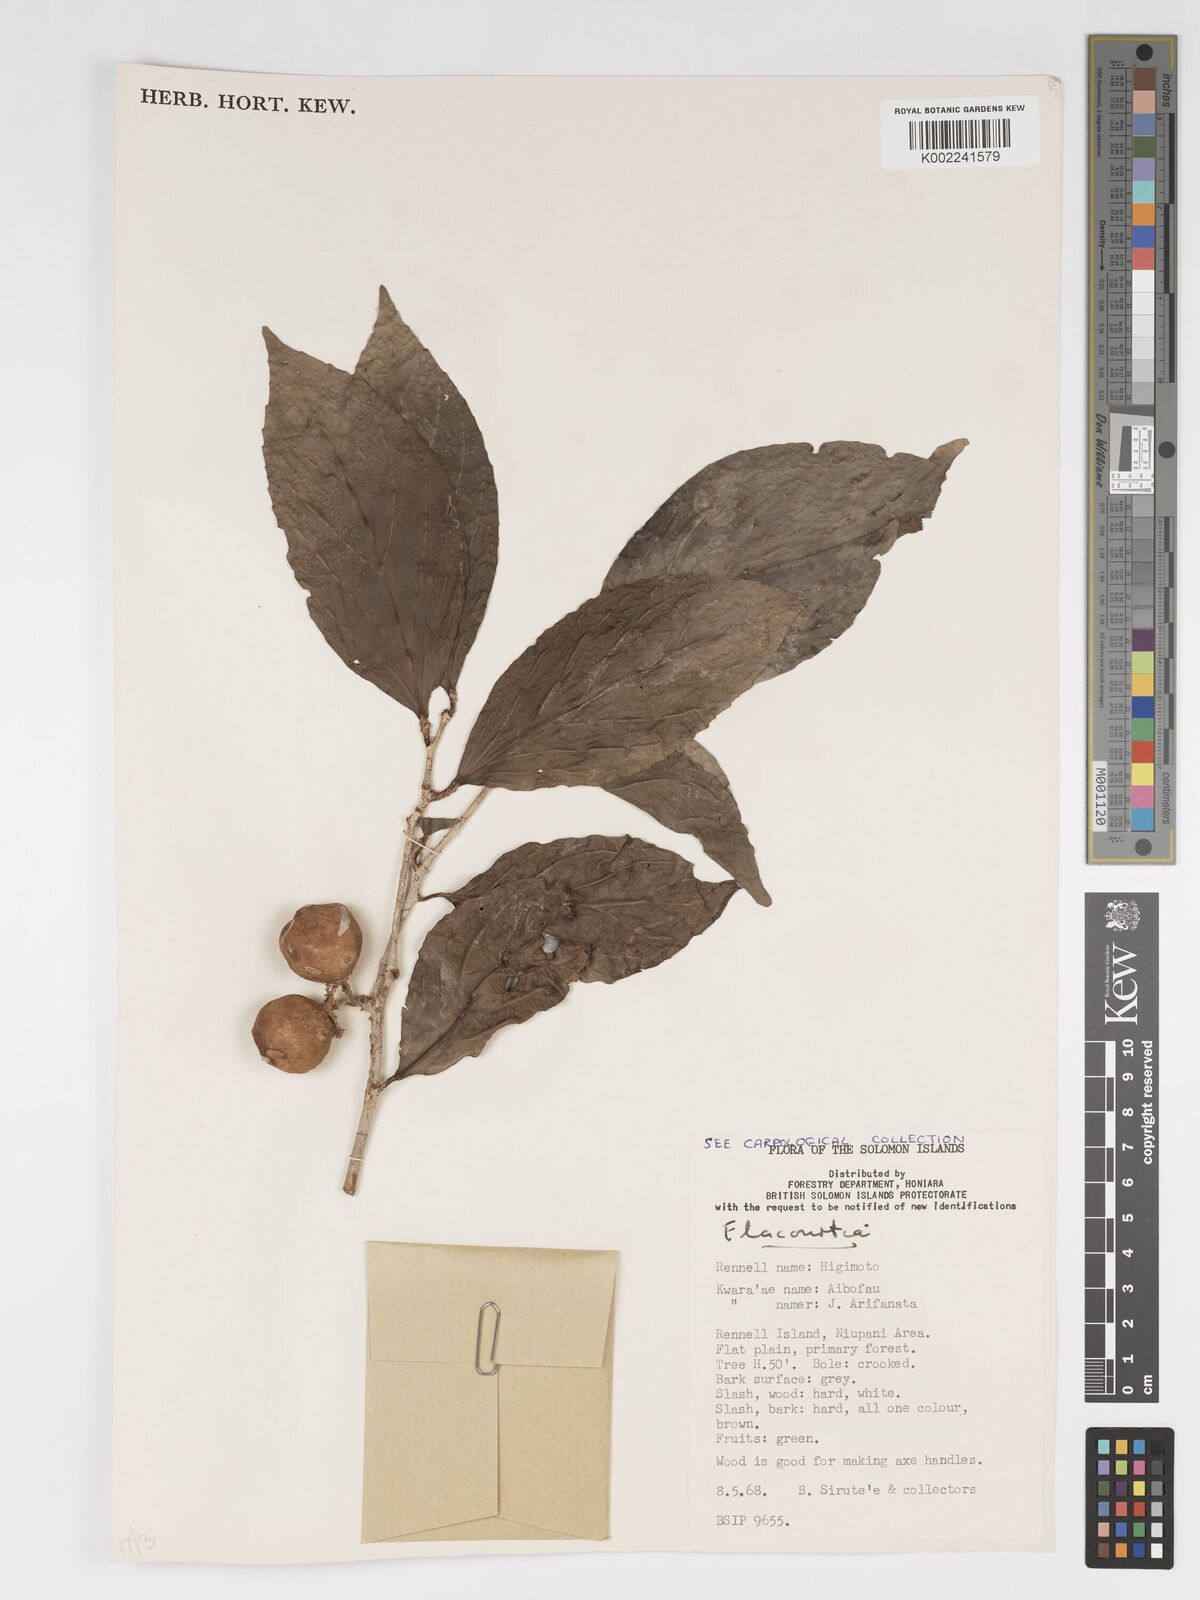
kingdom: Plantae
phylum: Tracheophyta
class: Magnoliopsida
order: Malpighiales
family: Salicaceae
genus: Flacourtia
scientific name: Flacourtia
